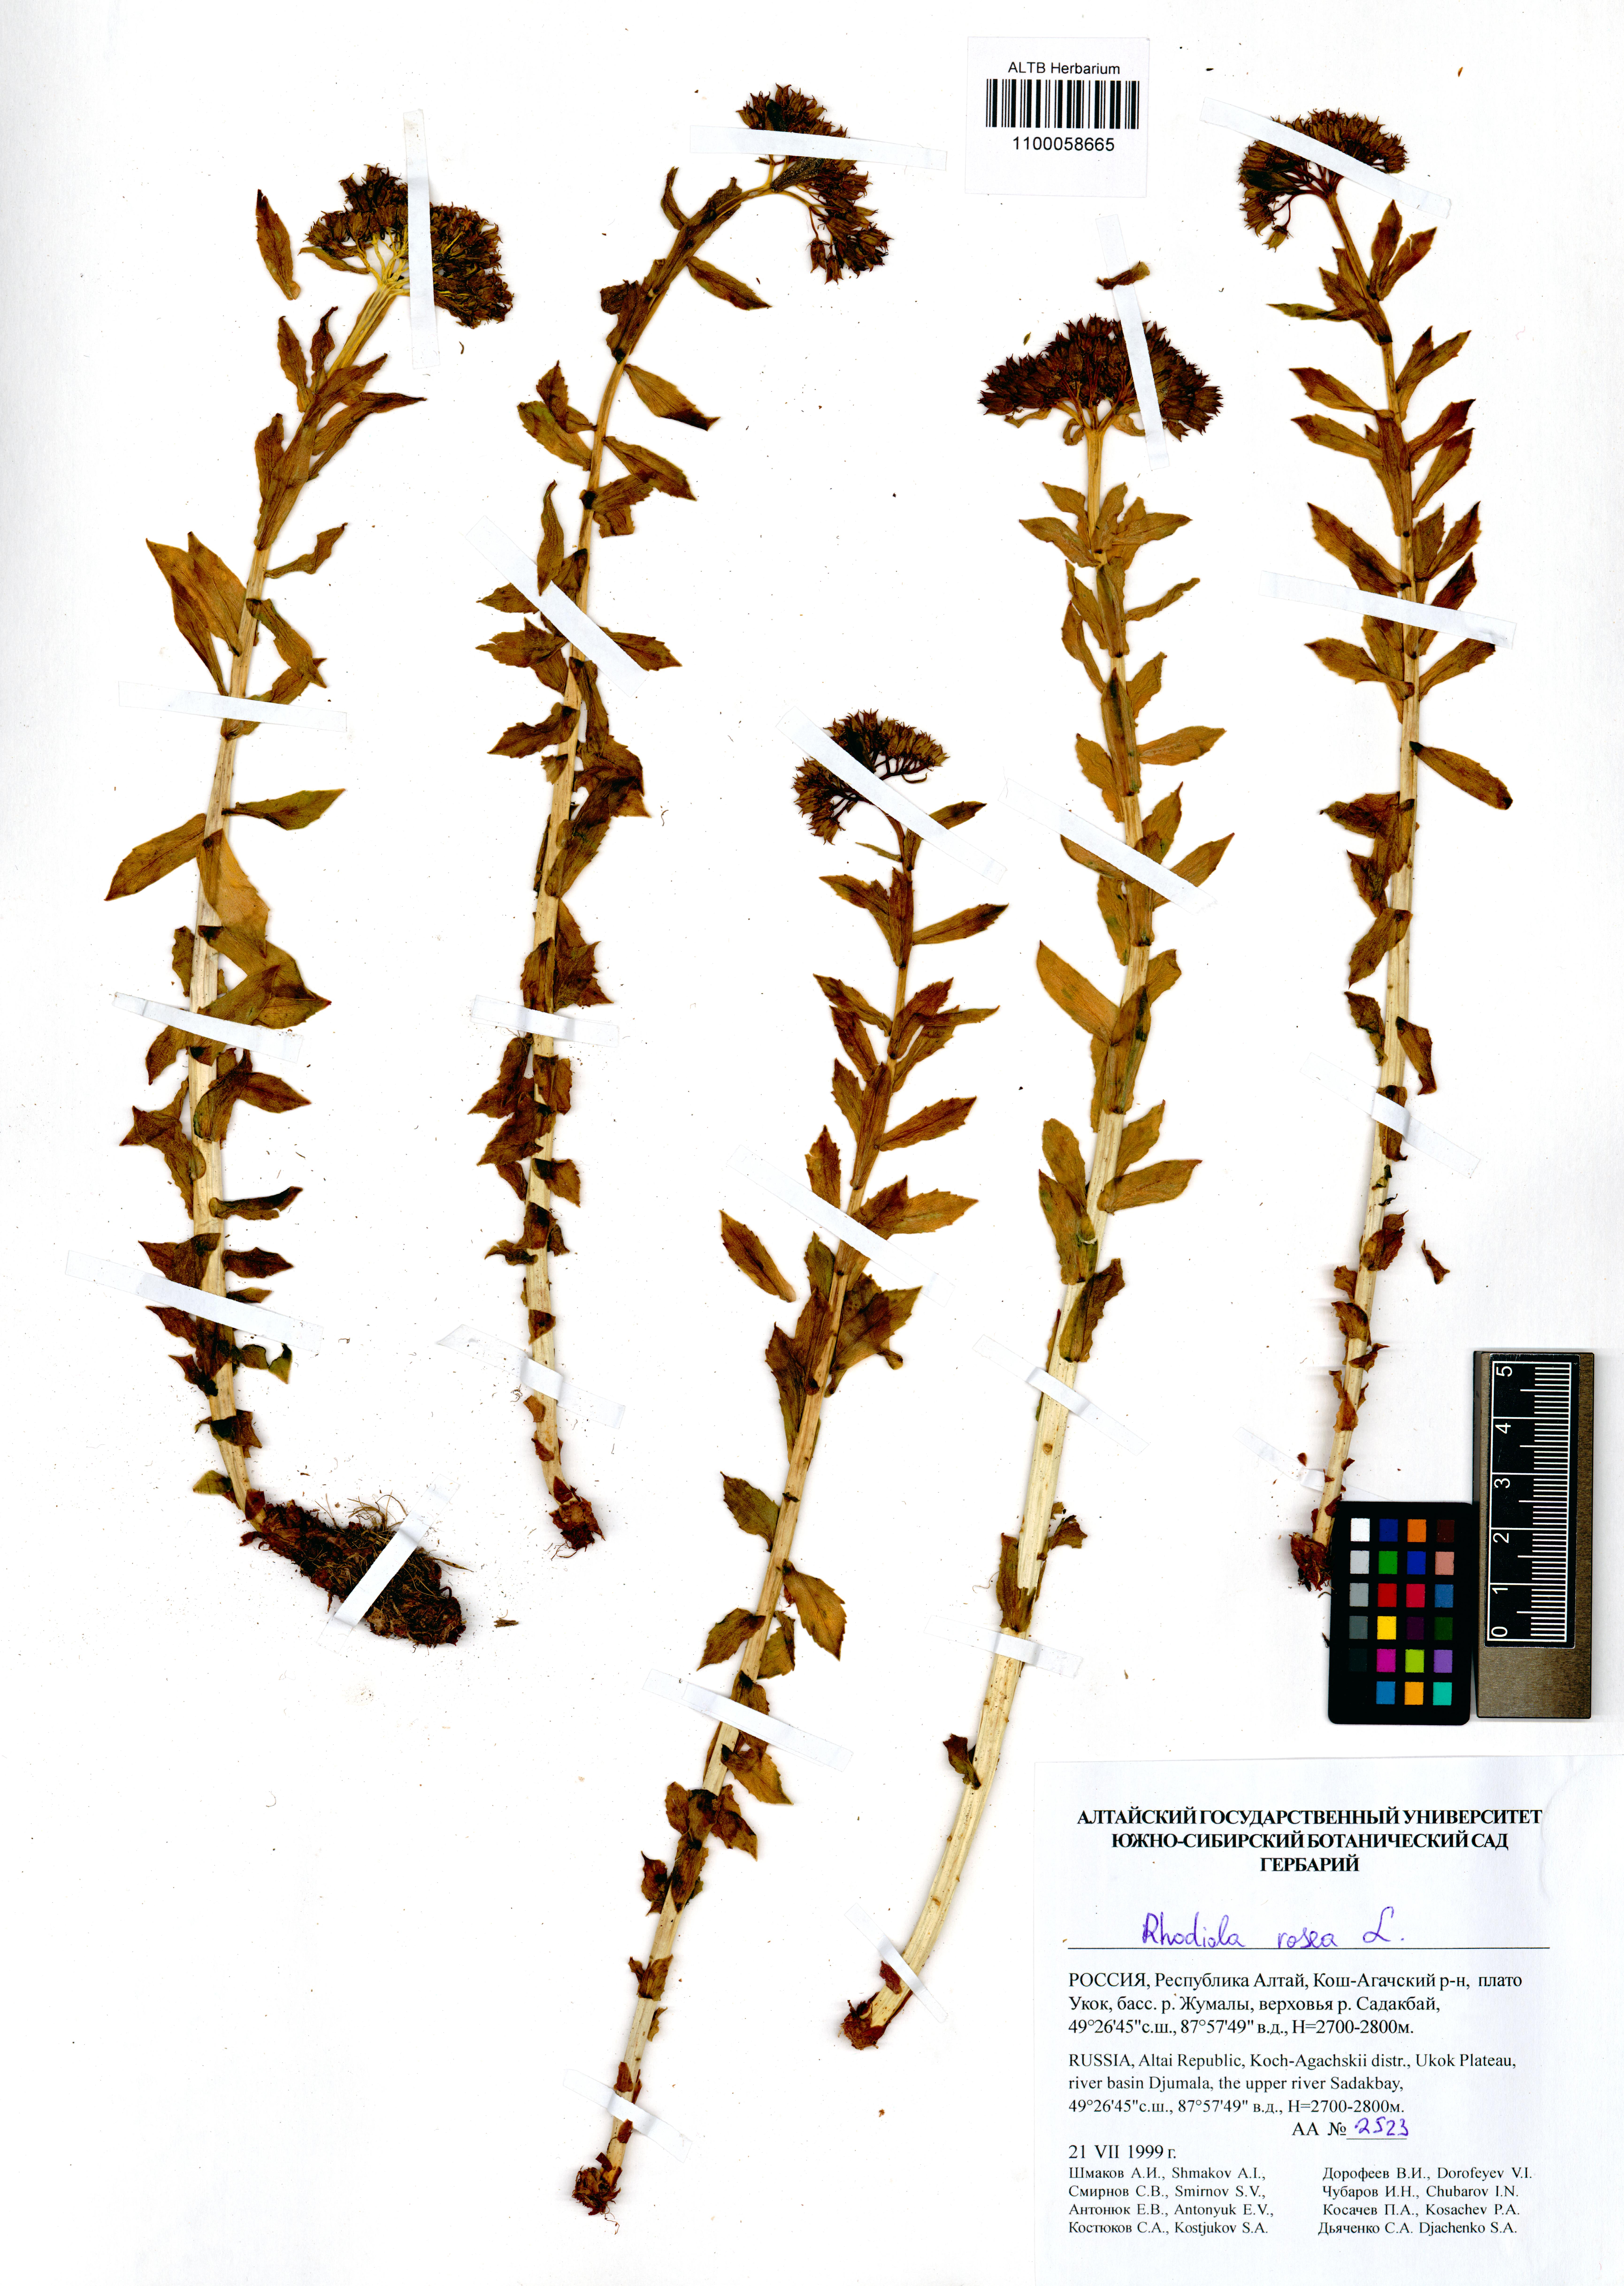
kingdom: Plantae
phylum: Tracheophyta
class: Magnoliopsida
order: Saxifragales
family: Crassulaceae
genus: Rhodiola
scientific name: Rhodiola rosea
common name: Roseroot
